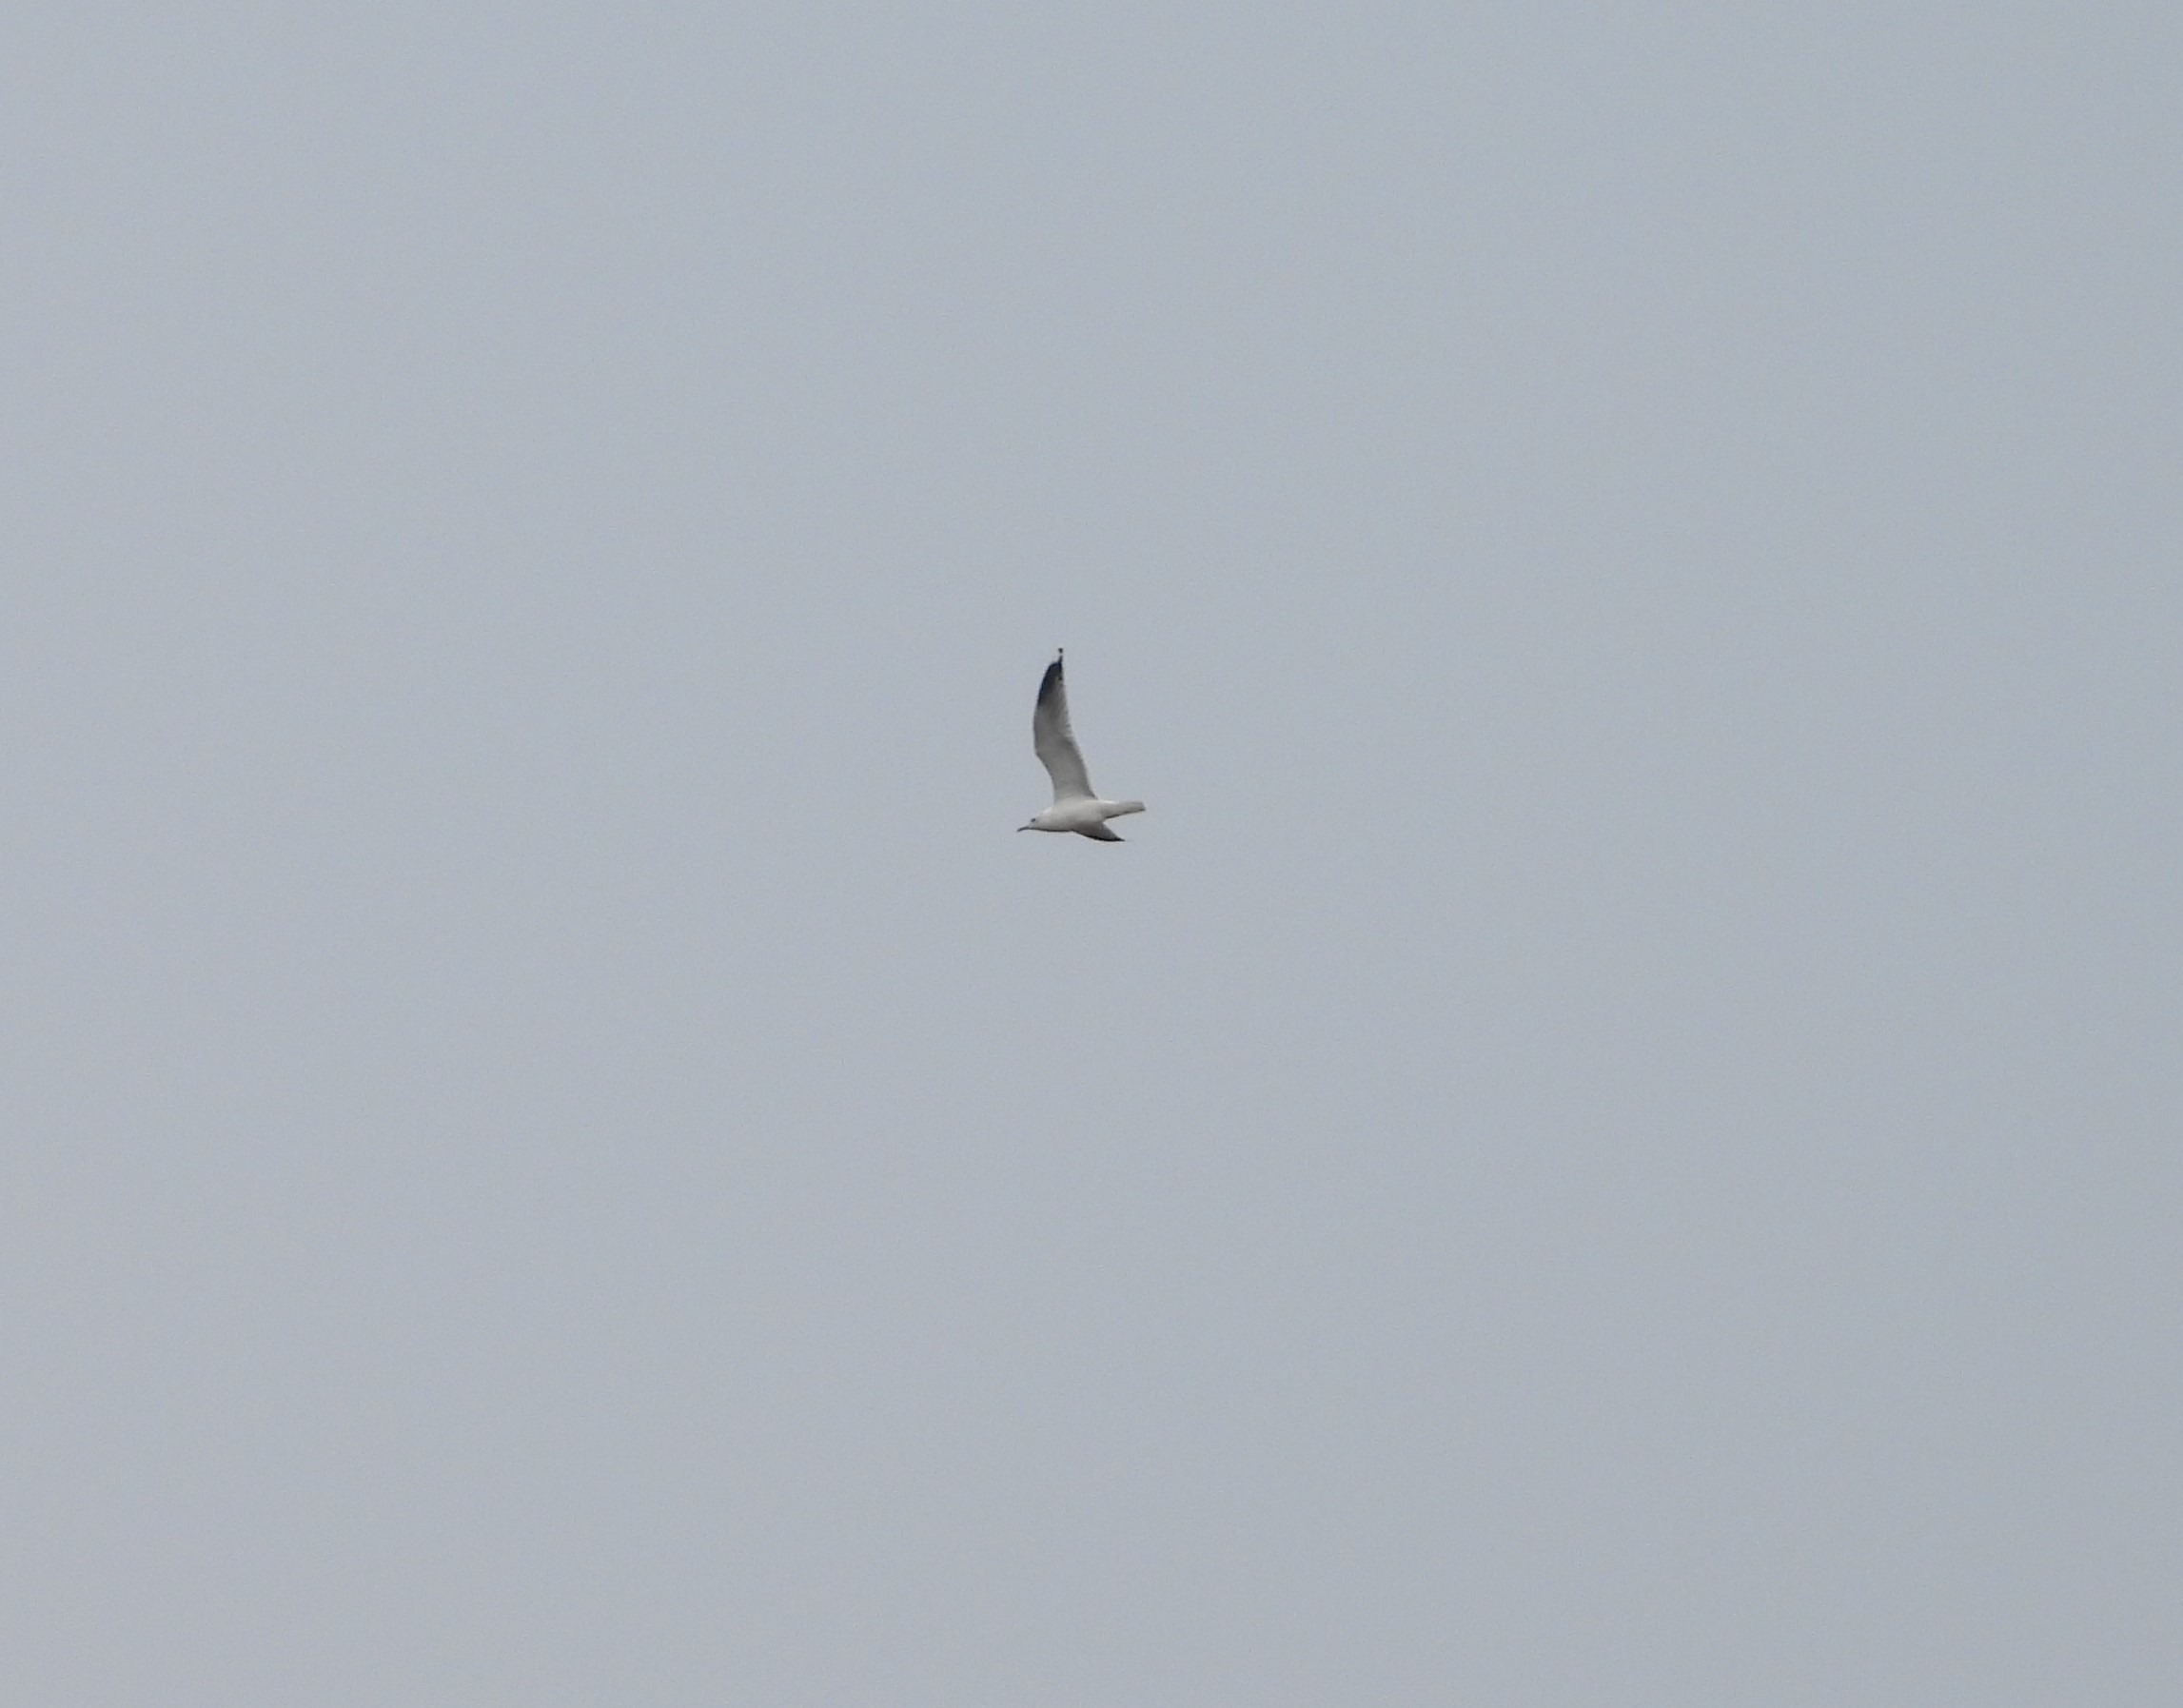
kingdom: Animalia
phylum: Chordata
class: Aves
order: Charadriiformes
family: Laridae
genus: Larus
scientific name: Larus canus
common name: Stormmåge
